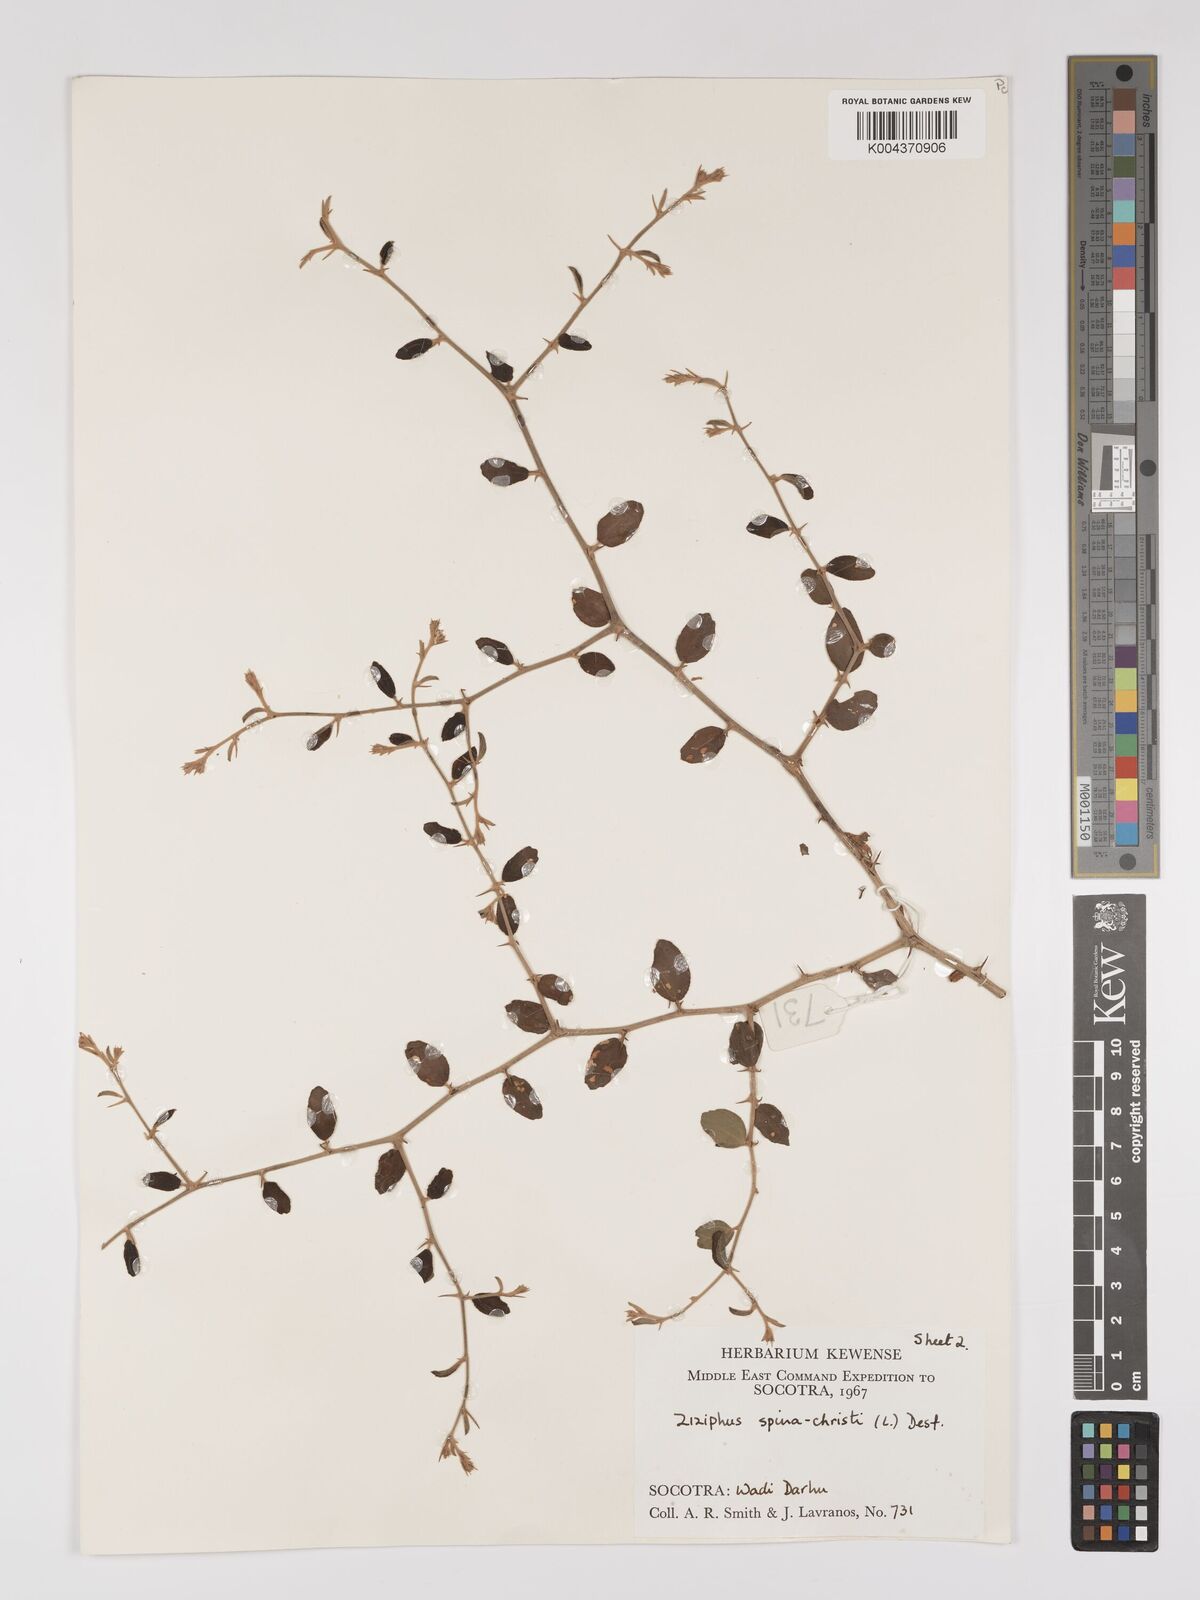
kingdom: Plantae
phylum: Tracheophyta
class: Magnoliopsida
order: Rosales
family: Rhamnaceae
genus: Ziziphus
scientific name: Ziziphus spina-christi
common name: Syrian christ-thorn
